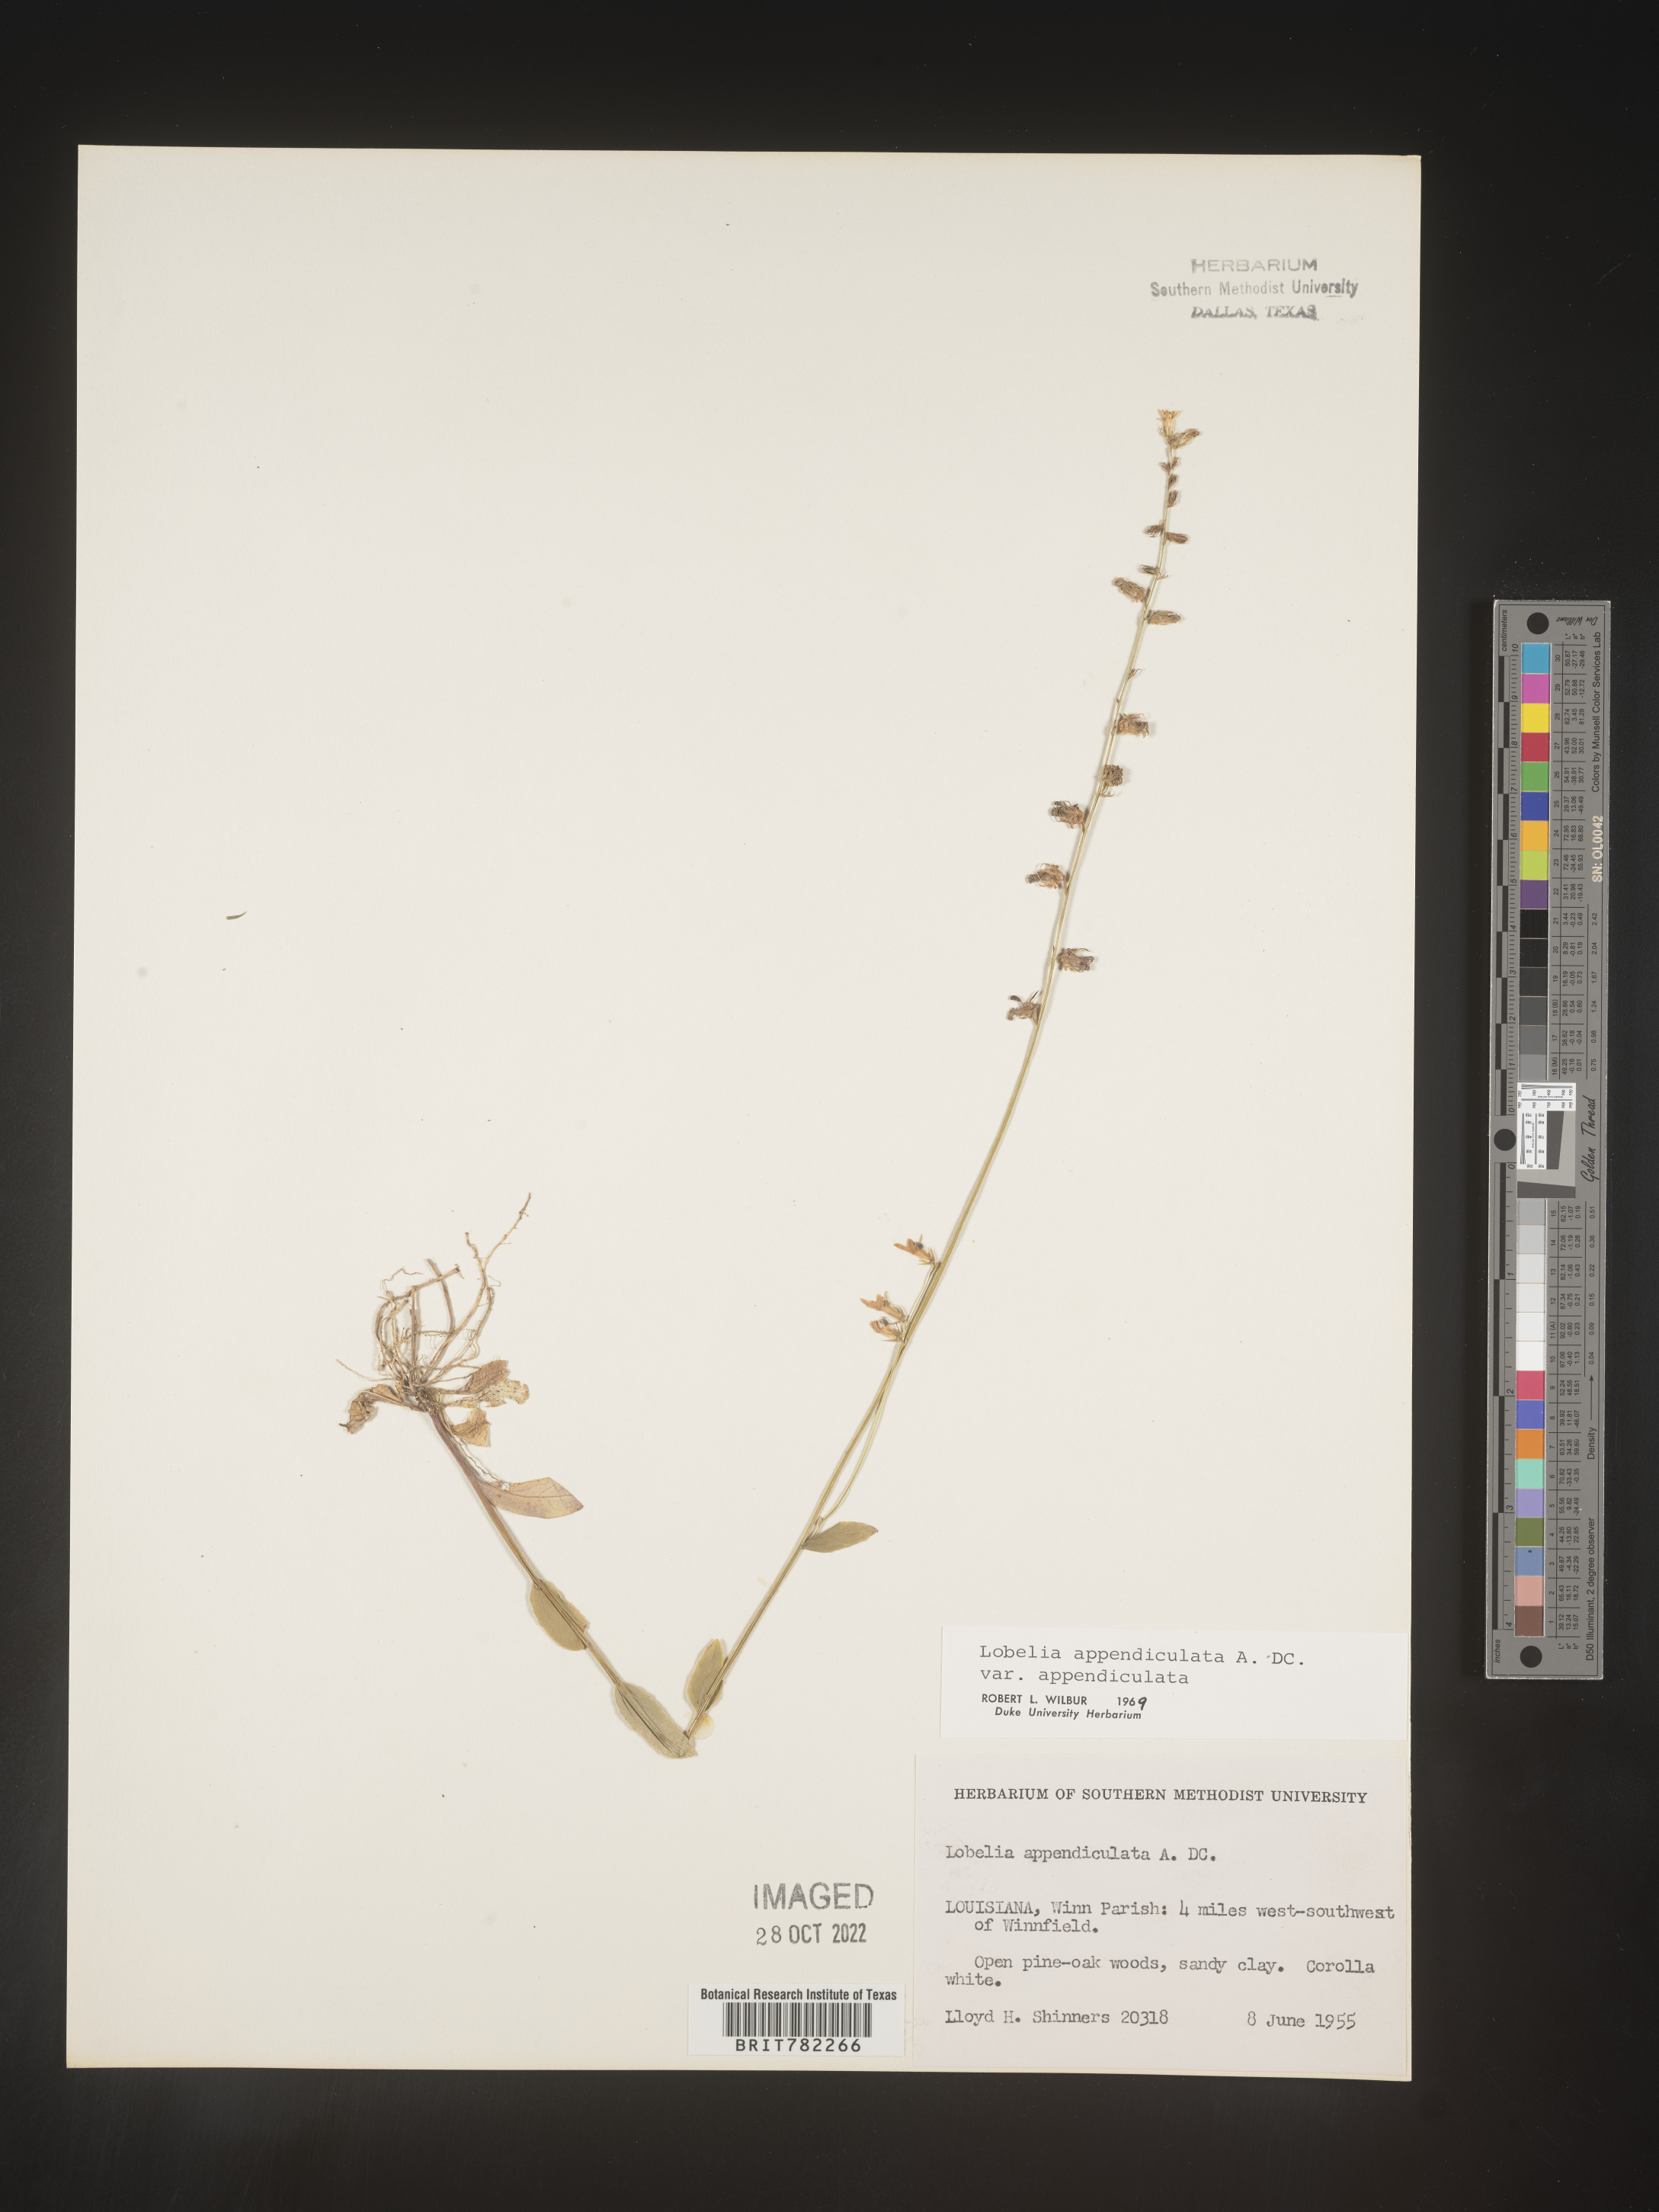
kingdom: Plantae
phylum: Tracheophyta
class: Magnoliopsida
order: Asterales
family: Campanulaceae
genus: Lobelia
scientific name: Lobelia appendiculata
